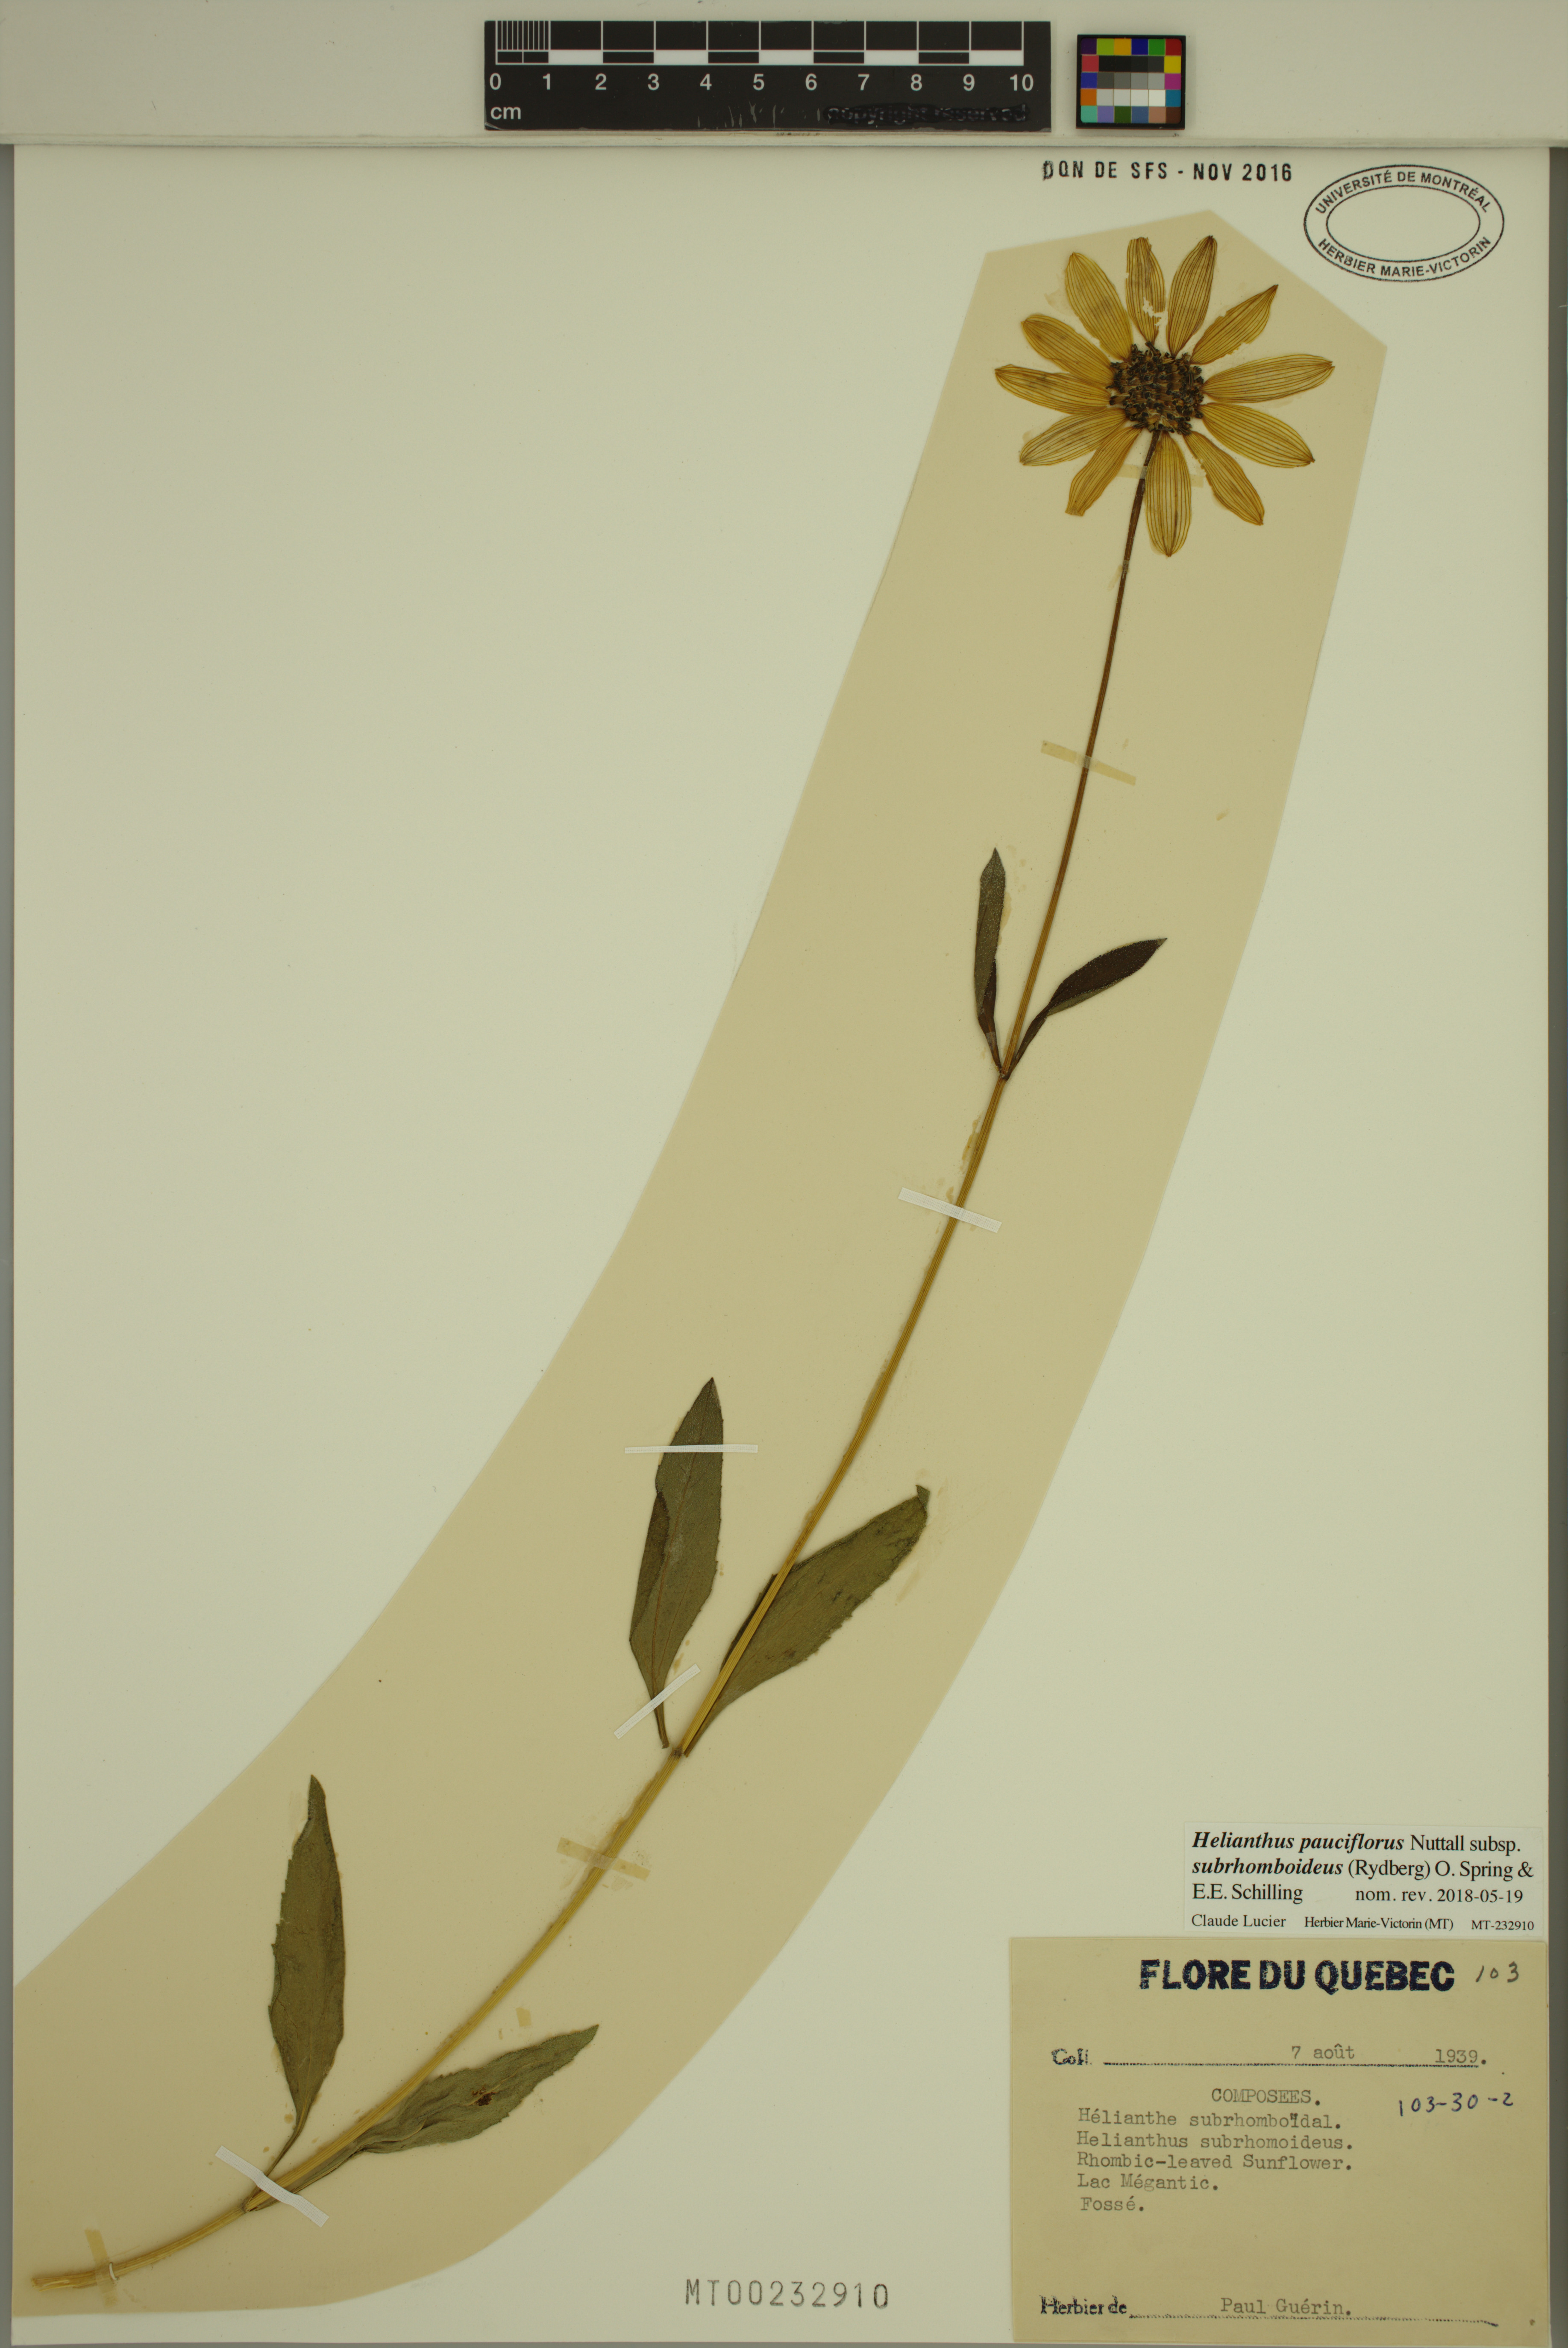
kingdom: Plantae
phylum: Tracheophyta
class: Magnoliopsida
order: Asterales
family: Asteraceae
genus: Helianthus
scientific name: Helianthus pauciflorus
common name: Stiff sunflower
